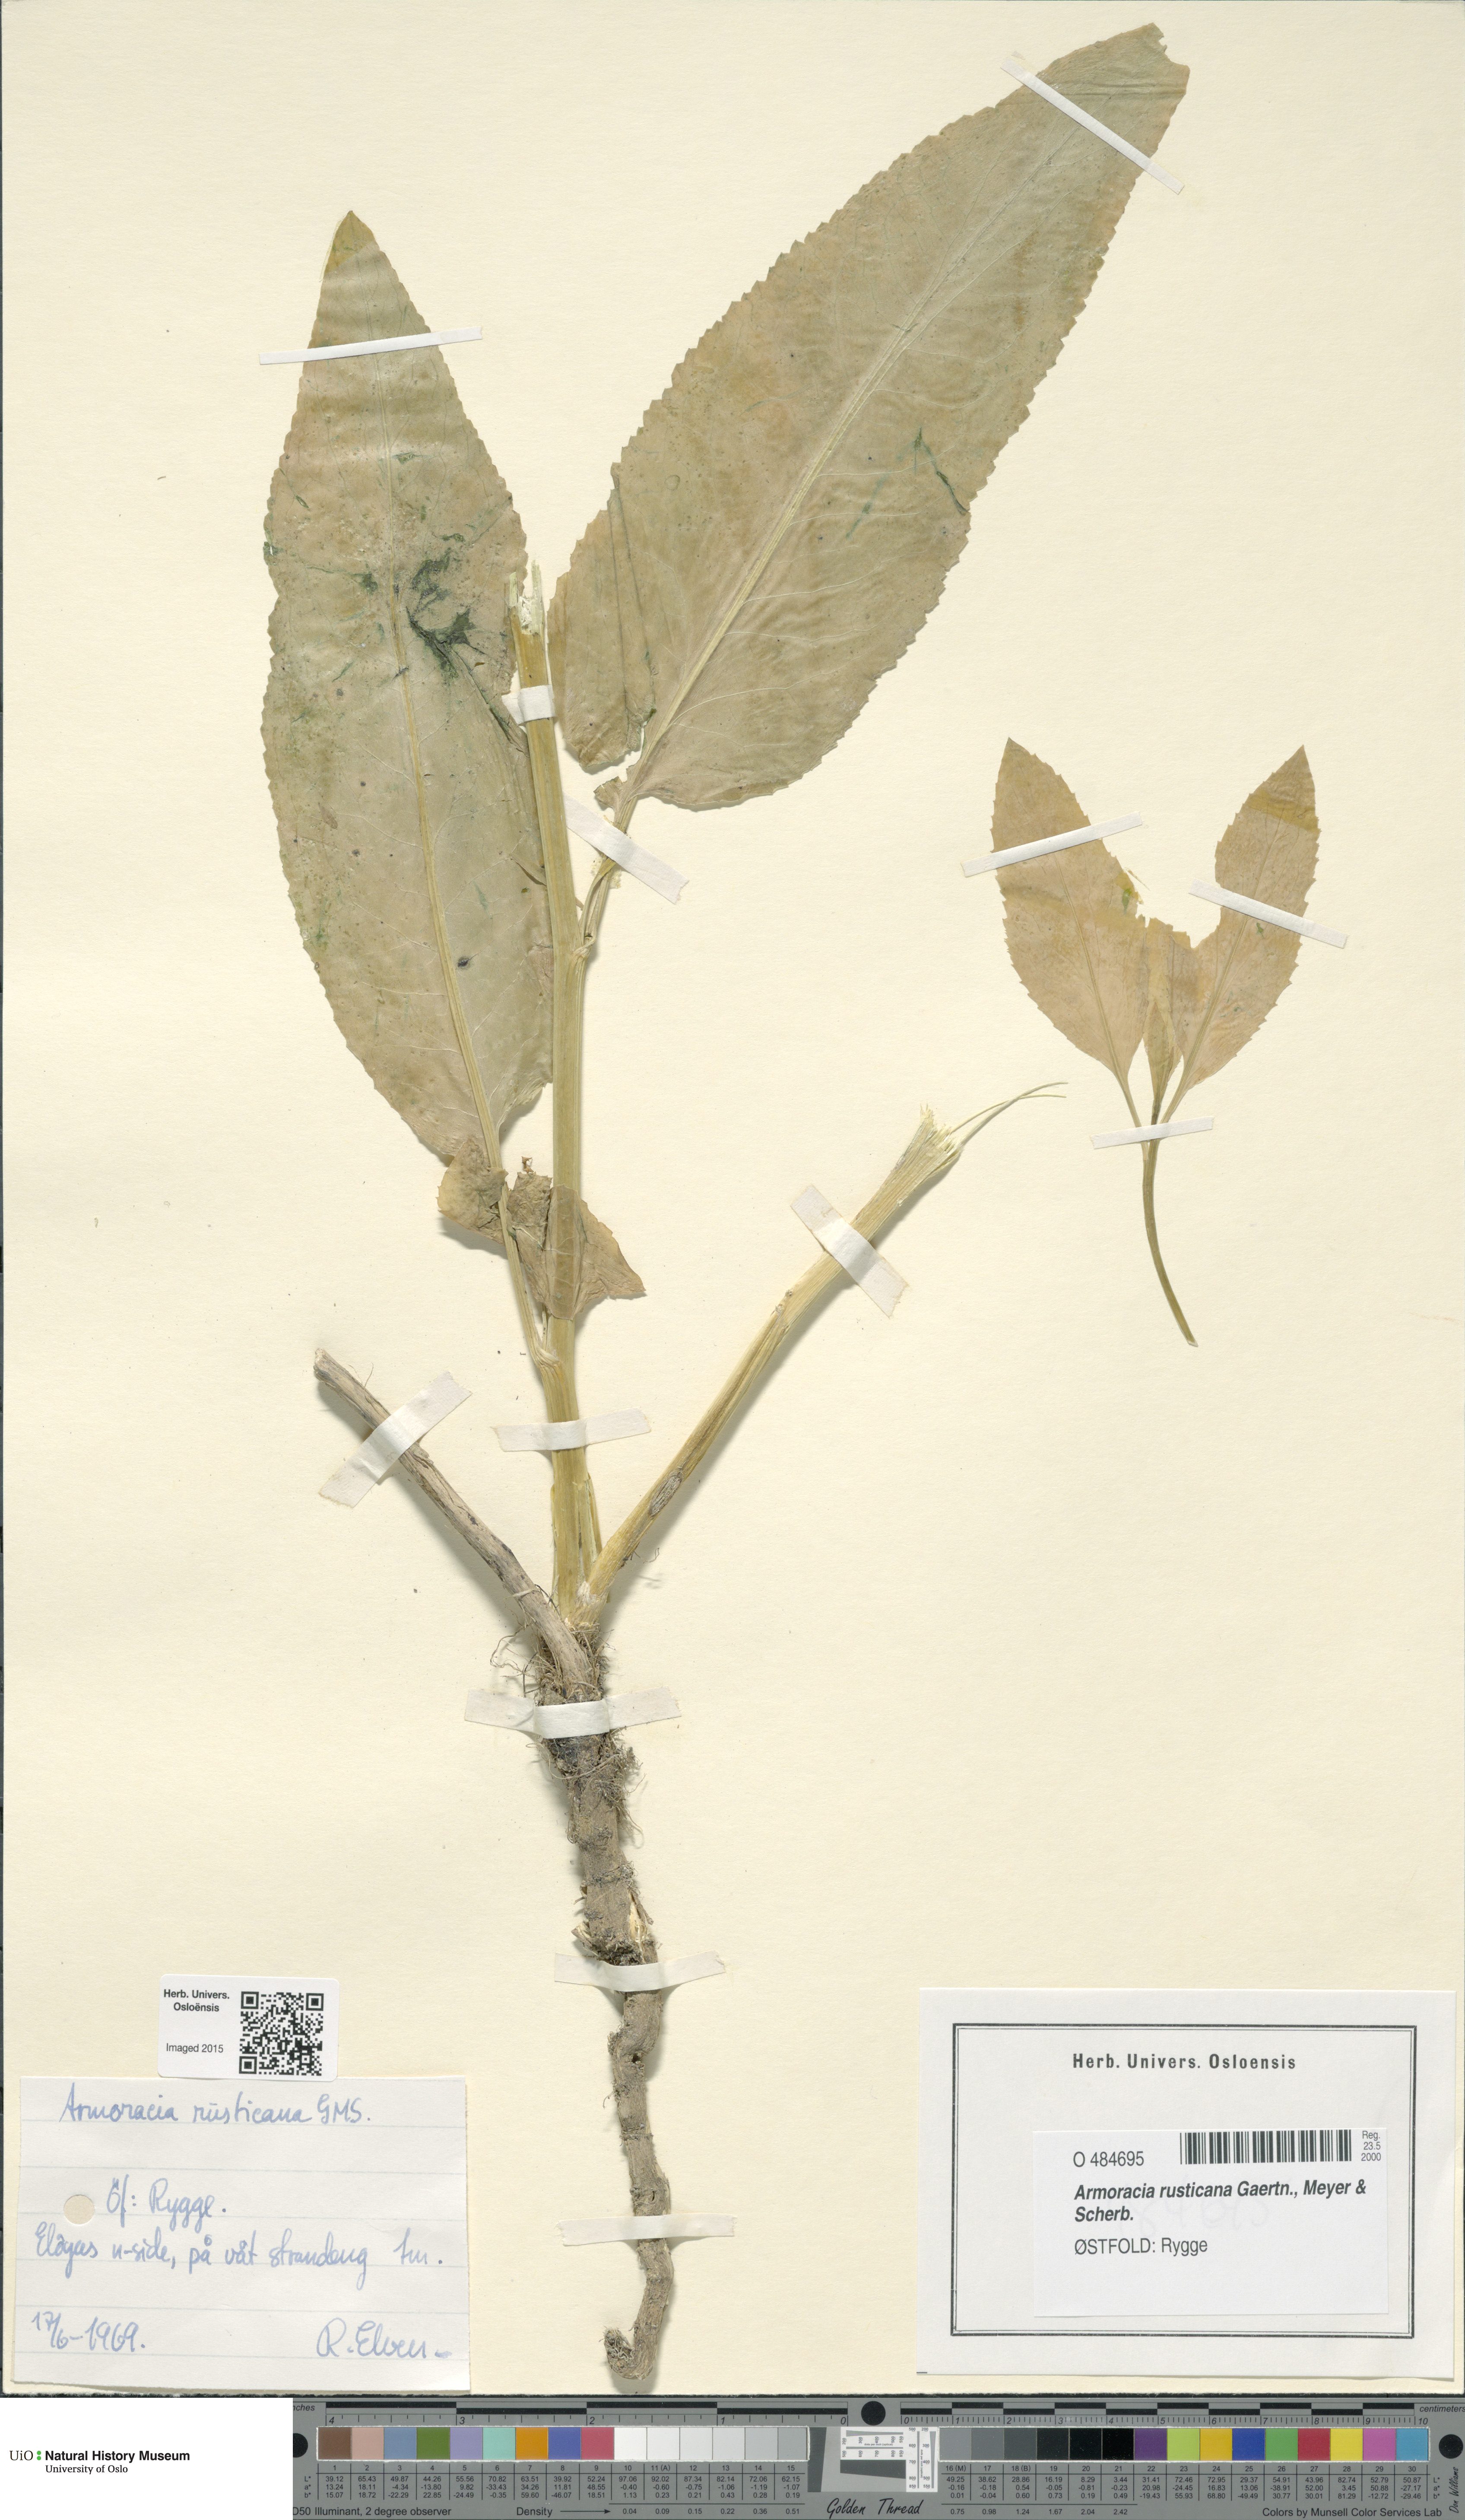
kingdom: Plantae
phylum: Tracheophyta
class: Magnoliopsida
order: Brassicales
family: Brassicaceae
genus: Armoracia
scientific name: Armoracia rusticana
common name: Horseradish
